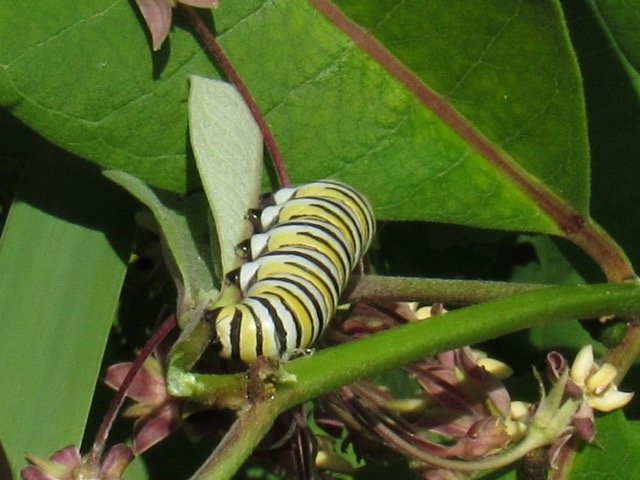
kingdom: Animalia
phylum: Arthropoda
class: Insecta
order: Lepidoptera
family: Nymphalidae
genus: Danaus
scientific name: Danaus plexippus
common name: Monarch
